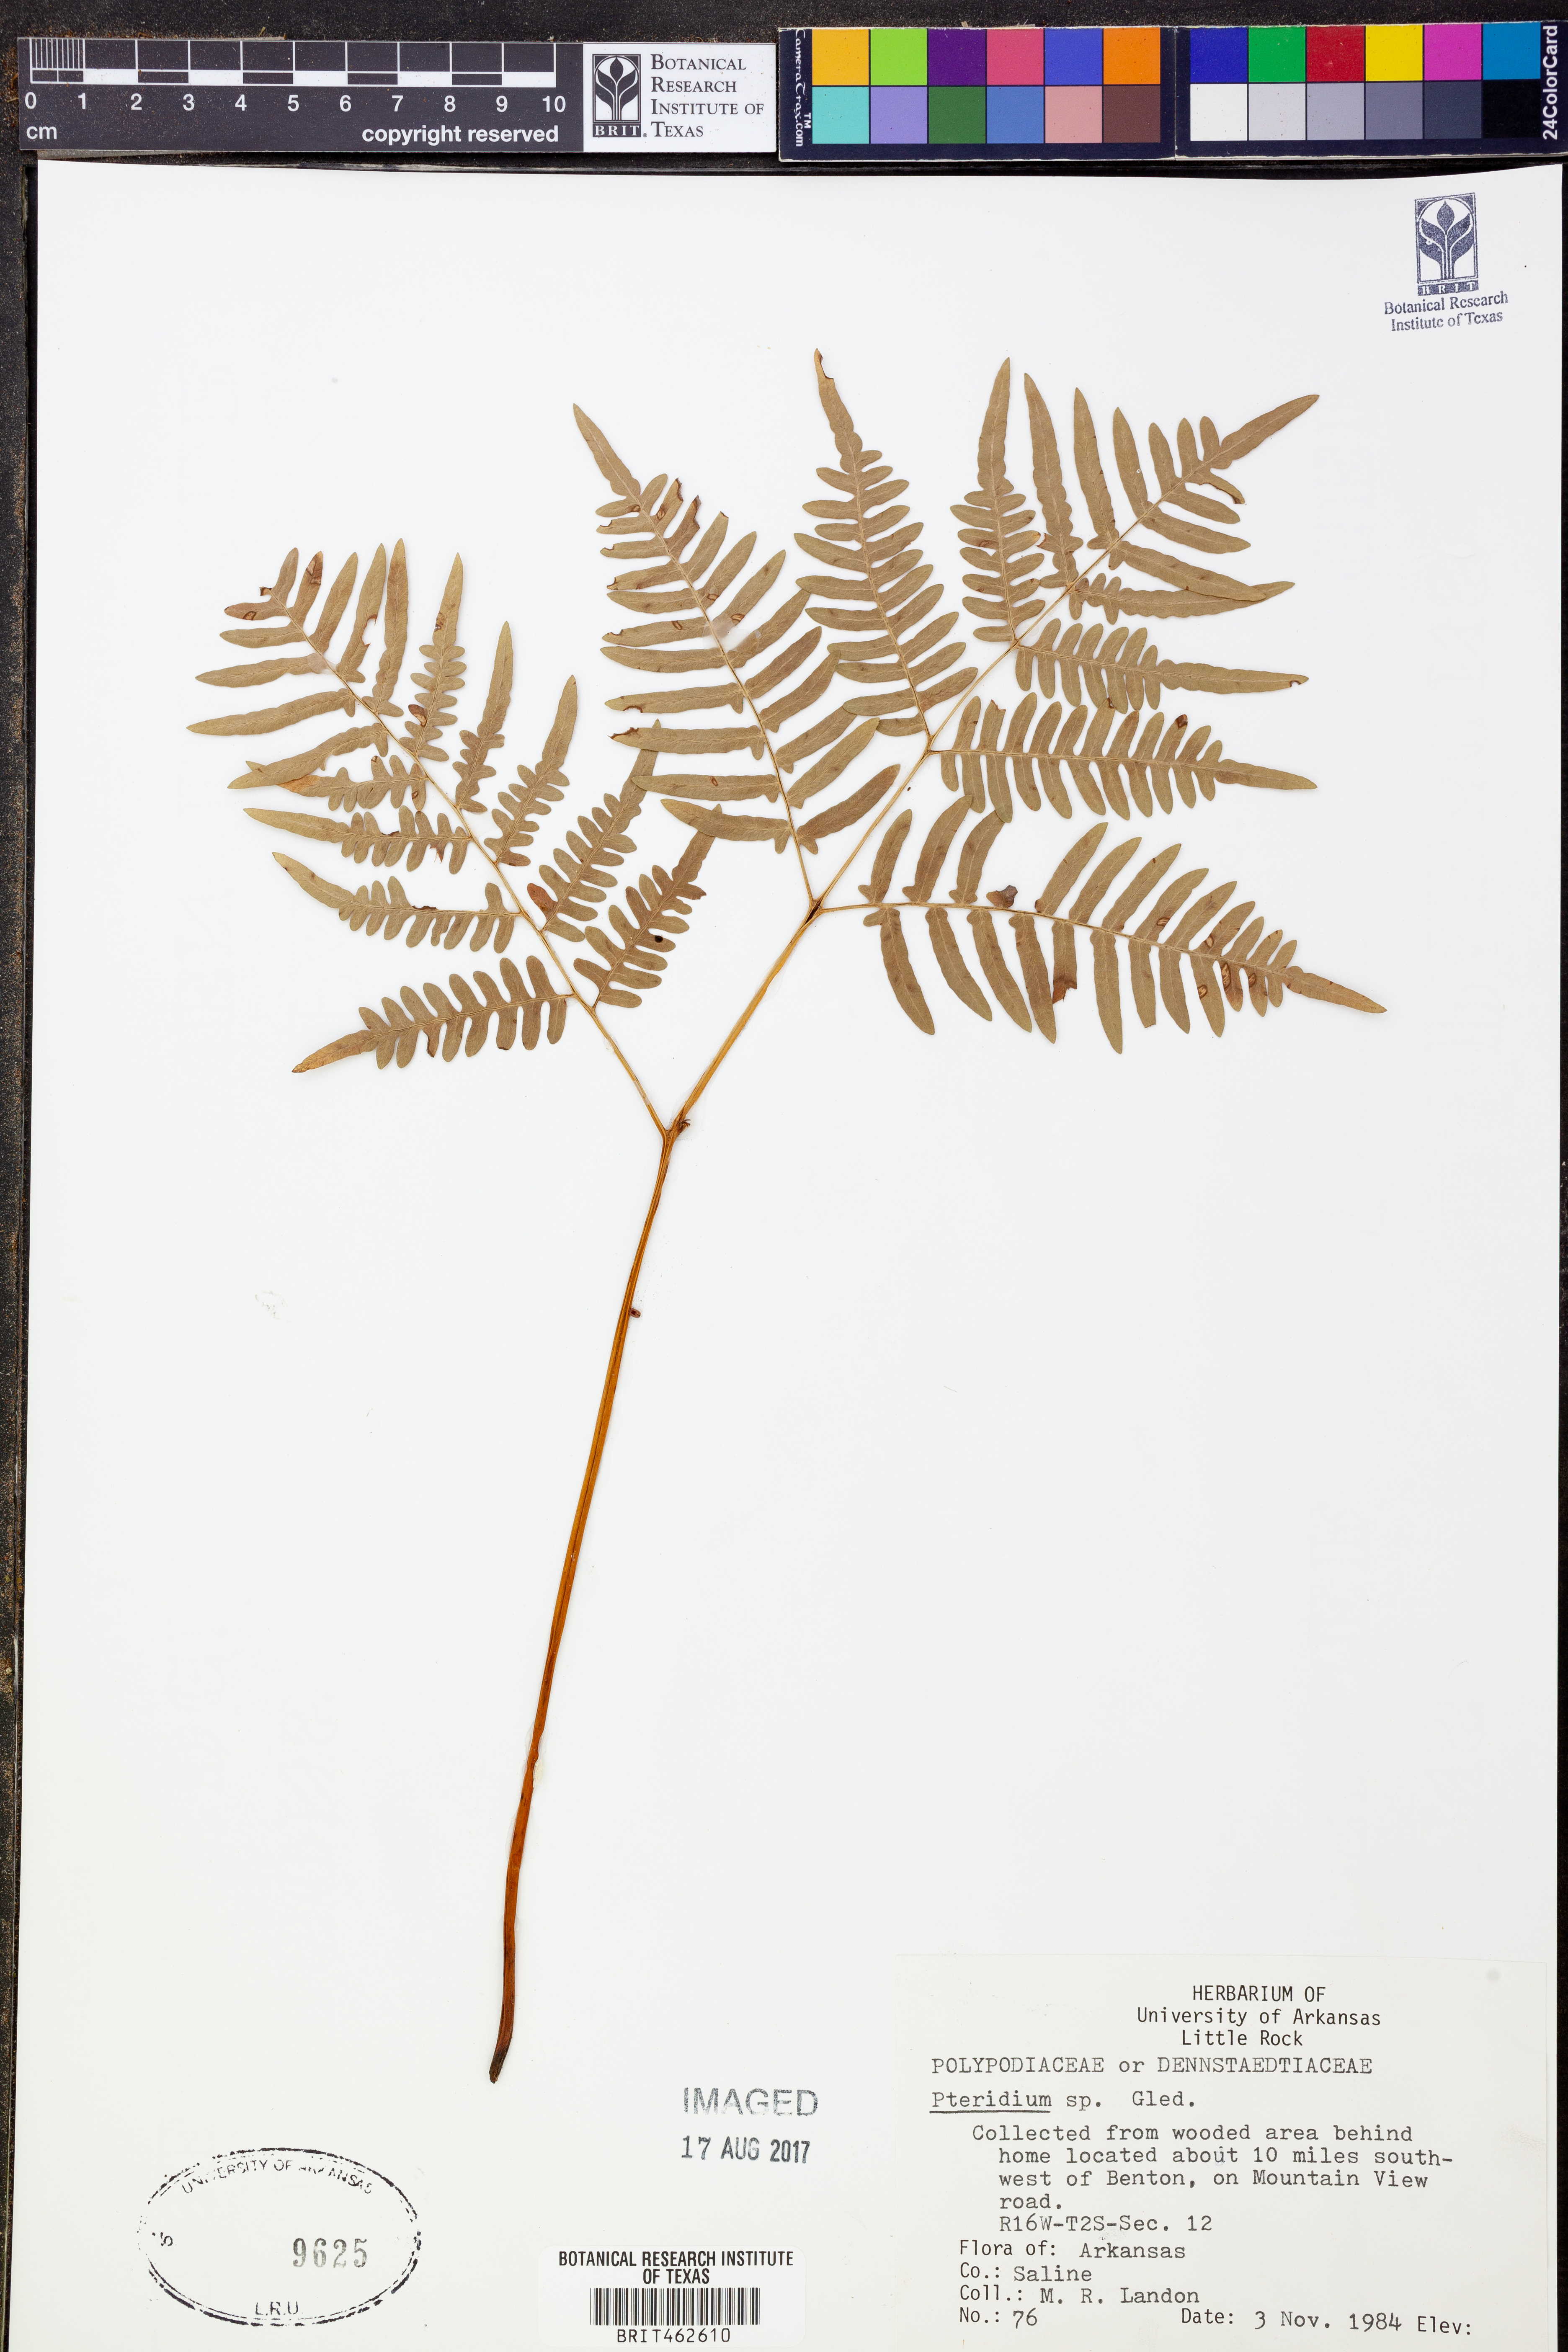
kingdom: Plantae
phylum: Tracheophyta
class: Polypodiopsida
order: Polypodiales
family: Dennstaedtiaceae
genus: Pteridium
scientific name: Pteridium
